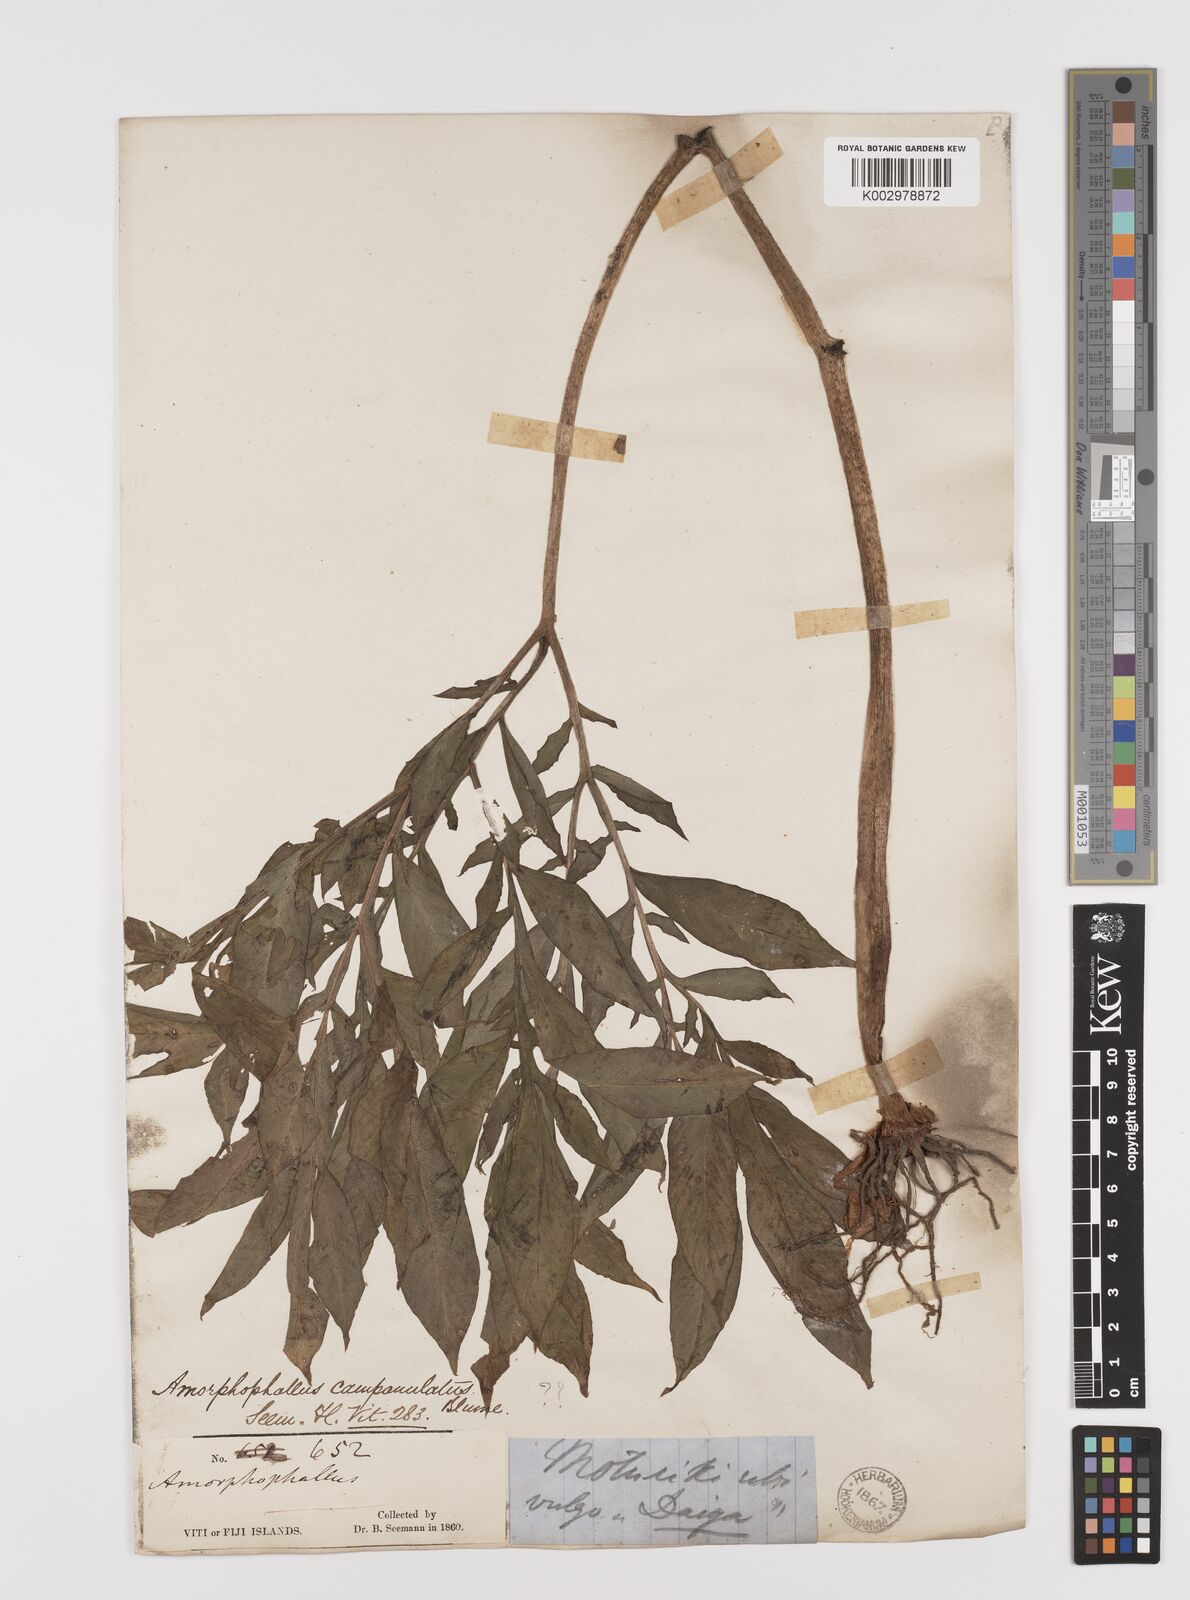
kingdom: Plantae
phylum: Tracheophyta
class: Liliopsida
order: Alismatales
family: Araceae
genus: Amorphophallus
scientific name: Amorphophallus paeoniifolius
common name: Telinga-potato
